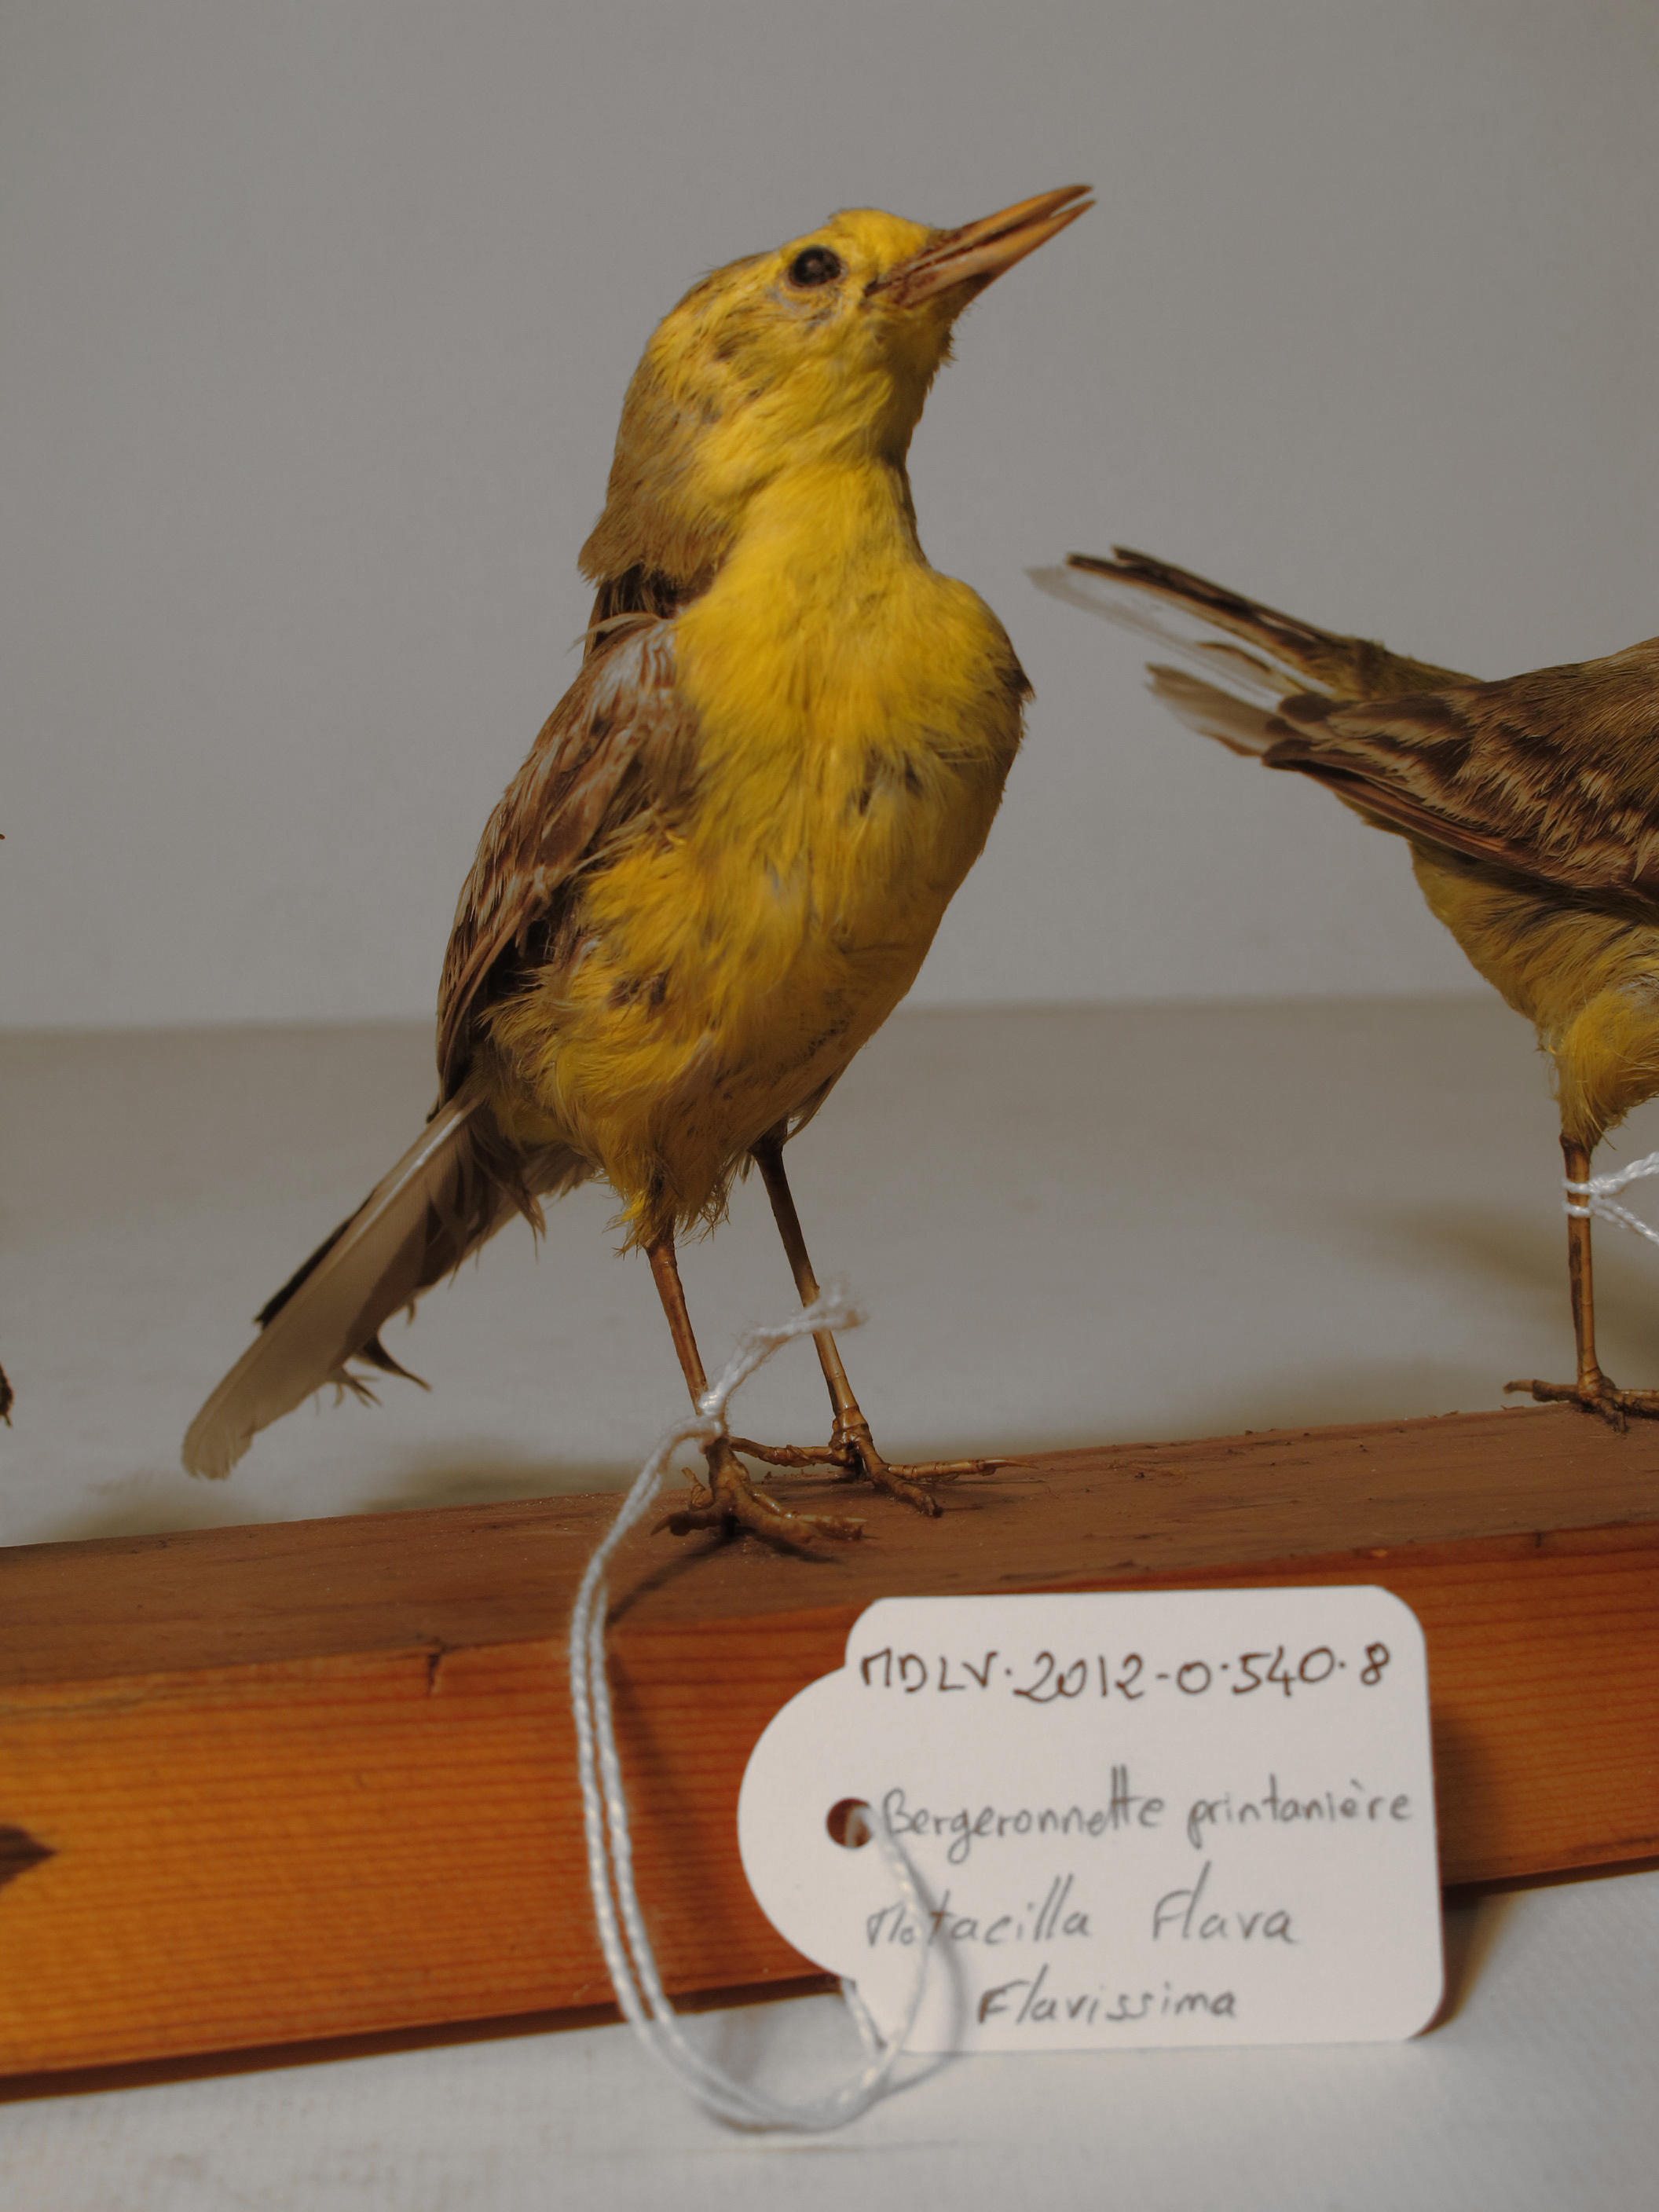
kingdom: Animalia
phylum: Chordata
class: Aves
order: Passeriformes
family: Motacillidae
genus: Motacilla
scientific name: Motacilla flava
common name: Yellow Wagtail
